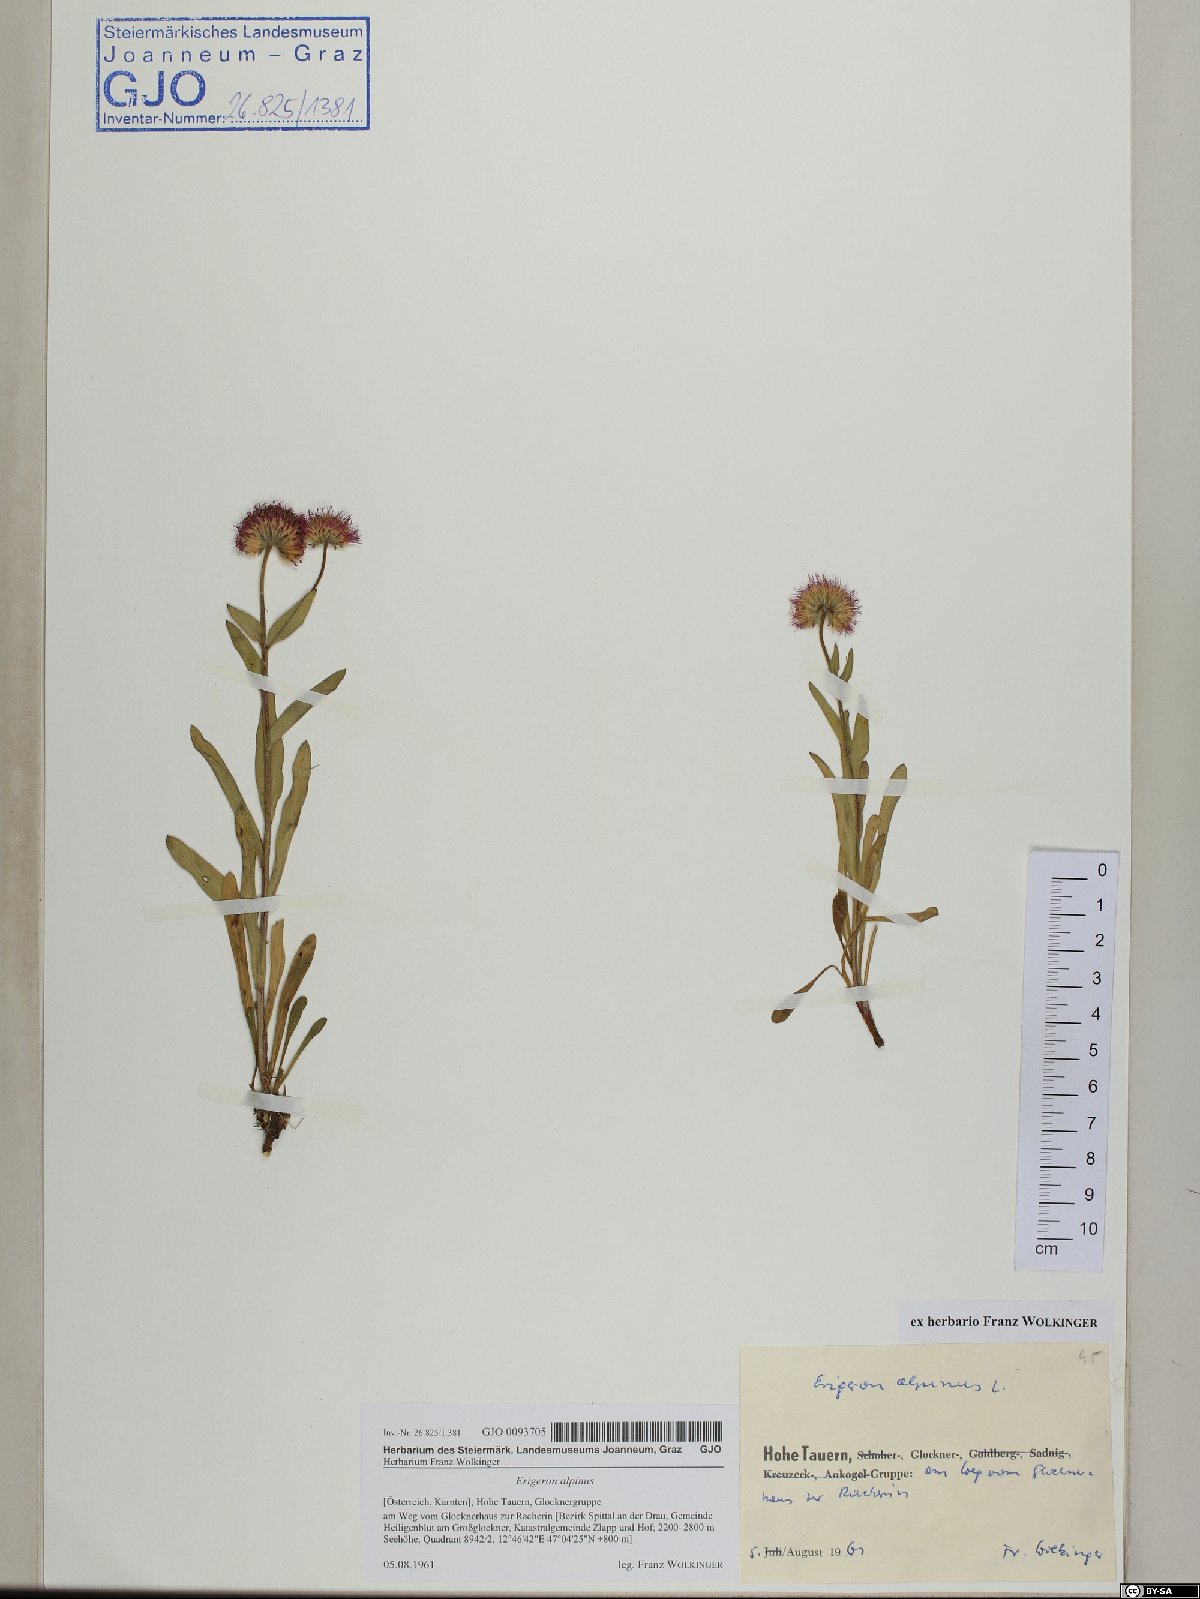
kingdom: Plantae
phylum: Tracheophyta
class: Magnoliopsida
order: Asterales
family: Asteraceae
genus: Erigeron
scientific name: Erigeron alpinus
